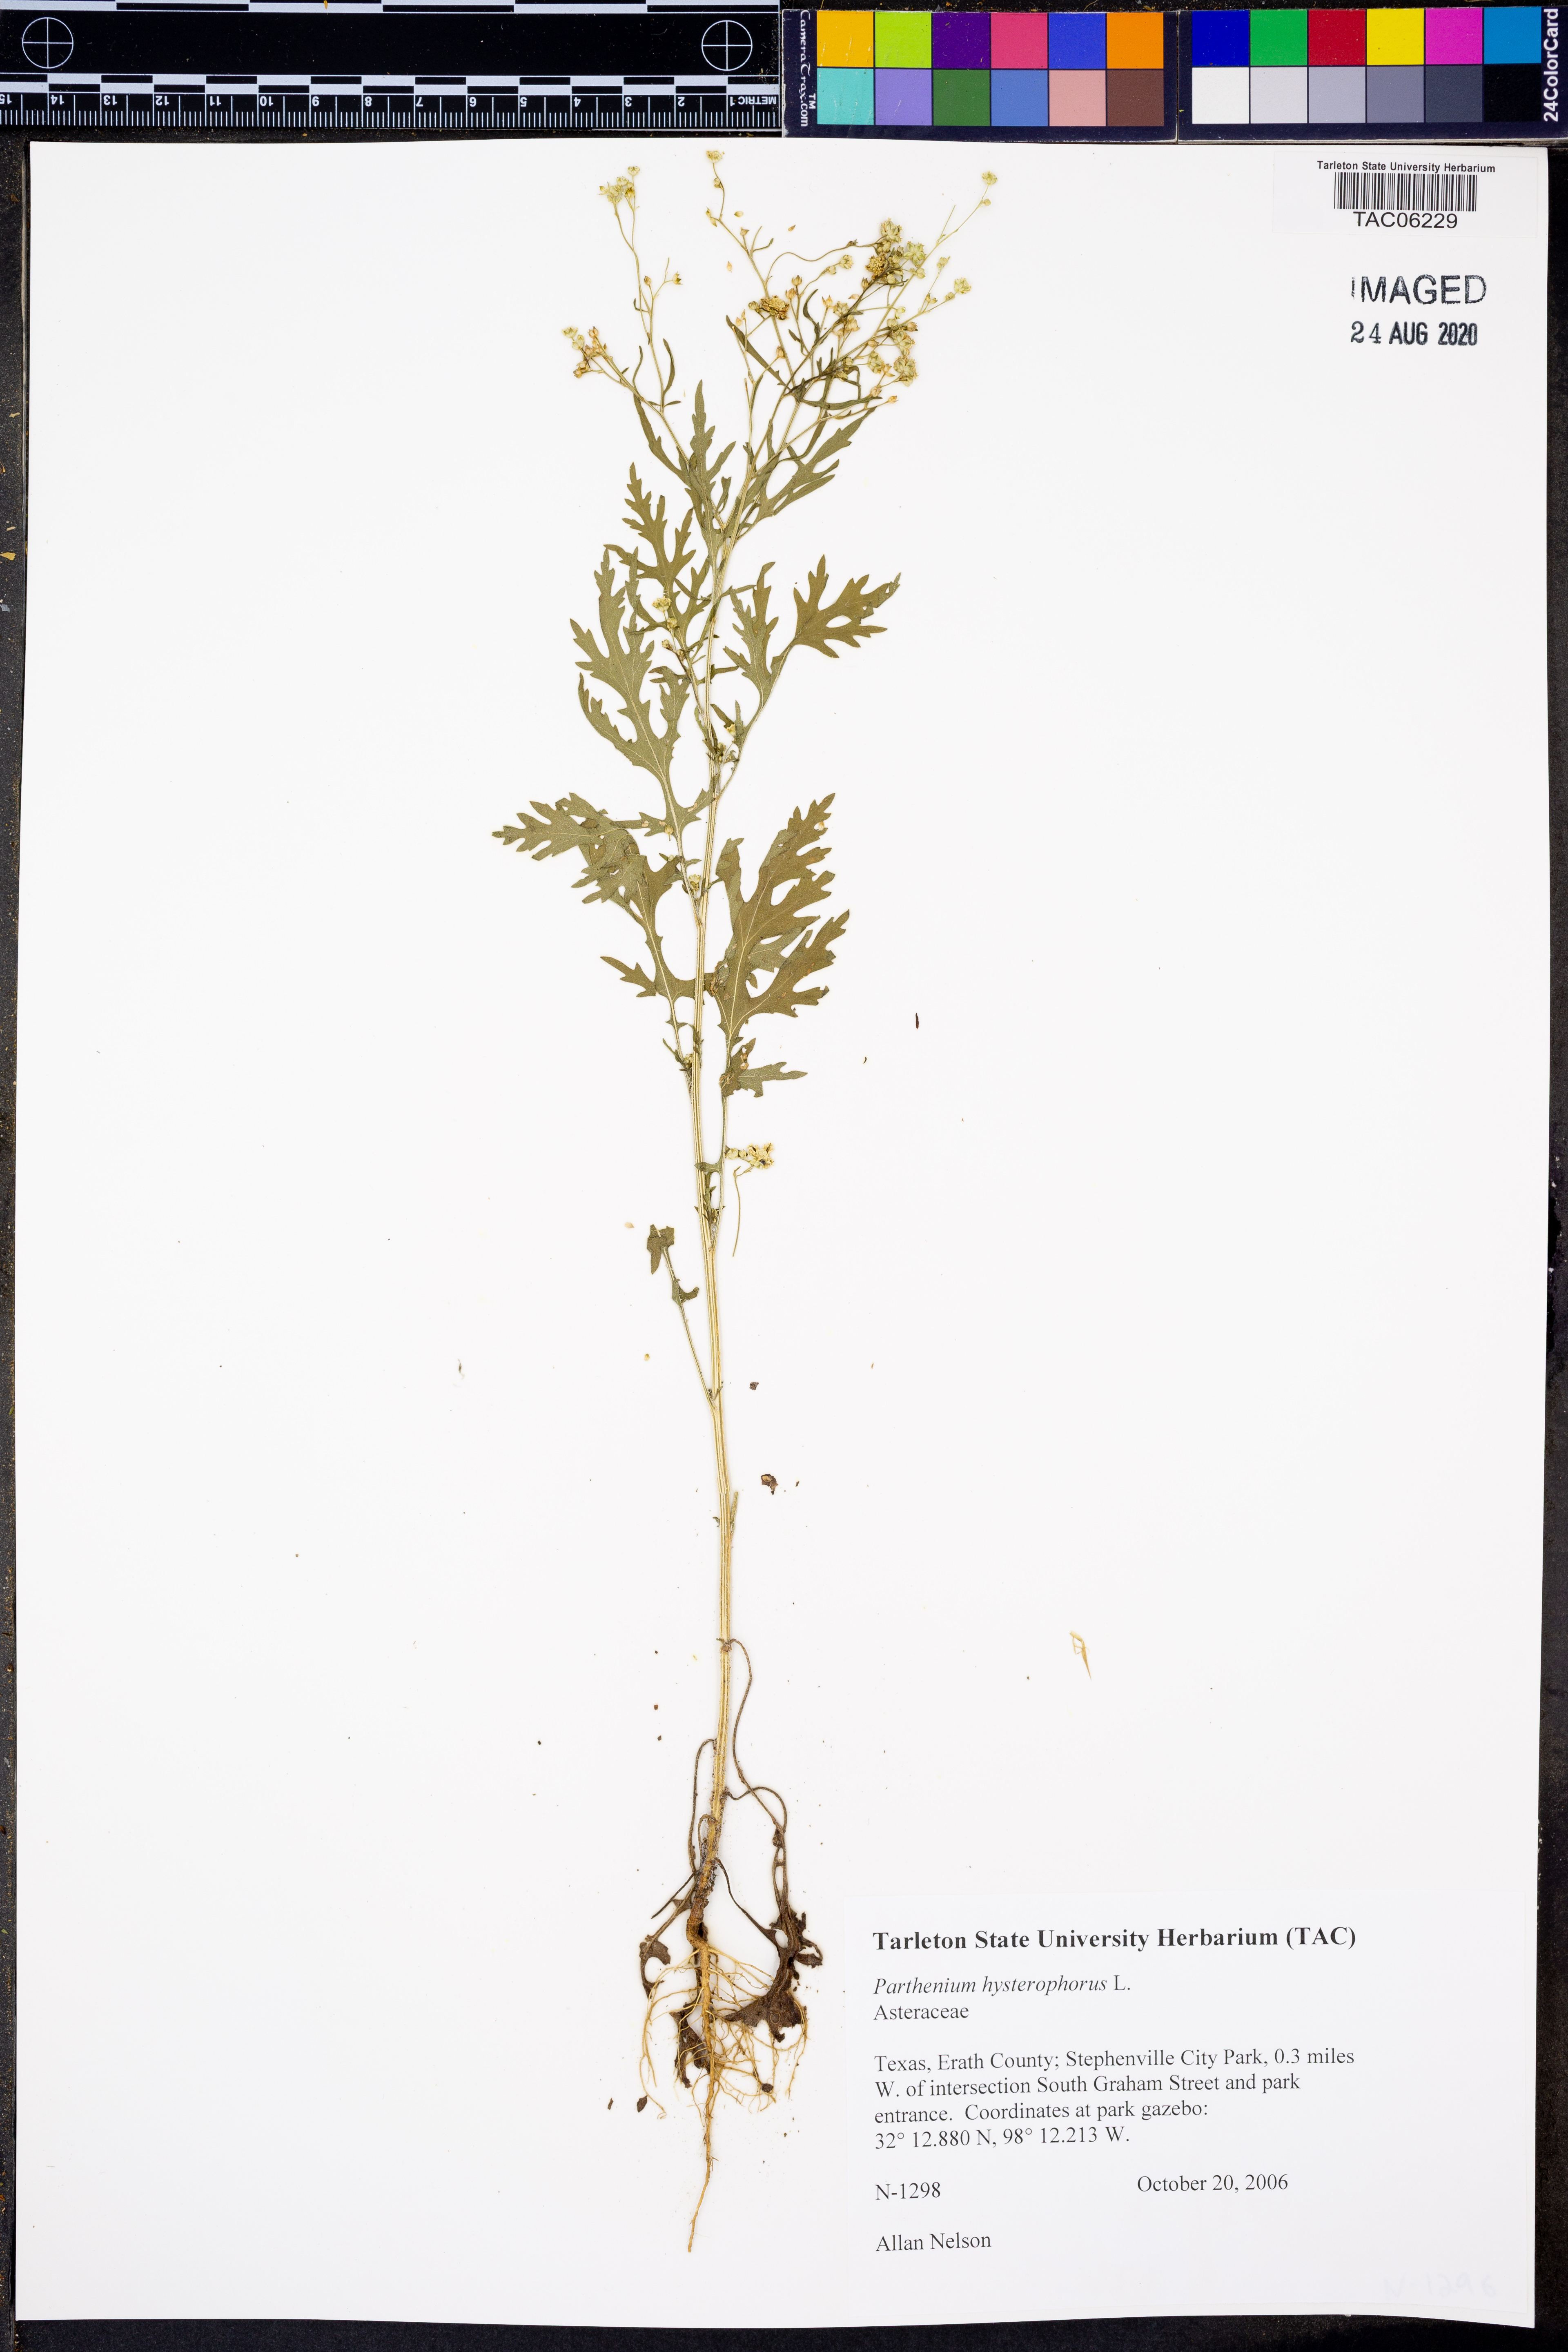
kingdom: Plantae
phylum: Tracheophyta
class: Magnoliopsida
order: Asterales
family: Asteraceae
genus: Parthenium
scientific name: Parthenium hysterophorus
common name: Santa maria feverfew
